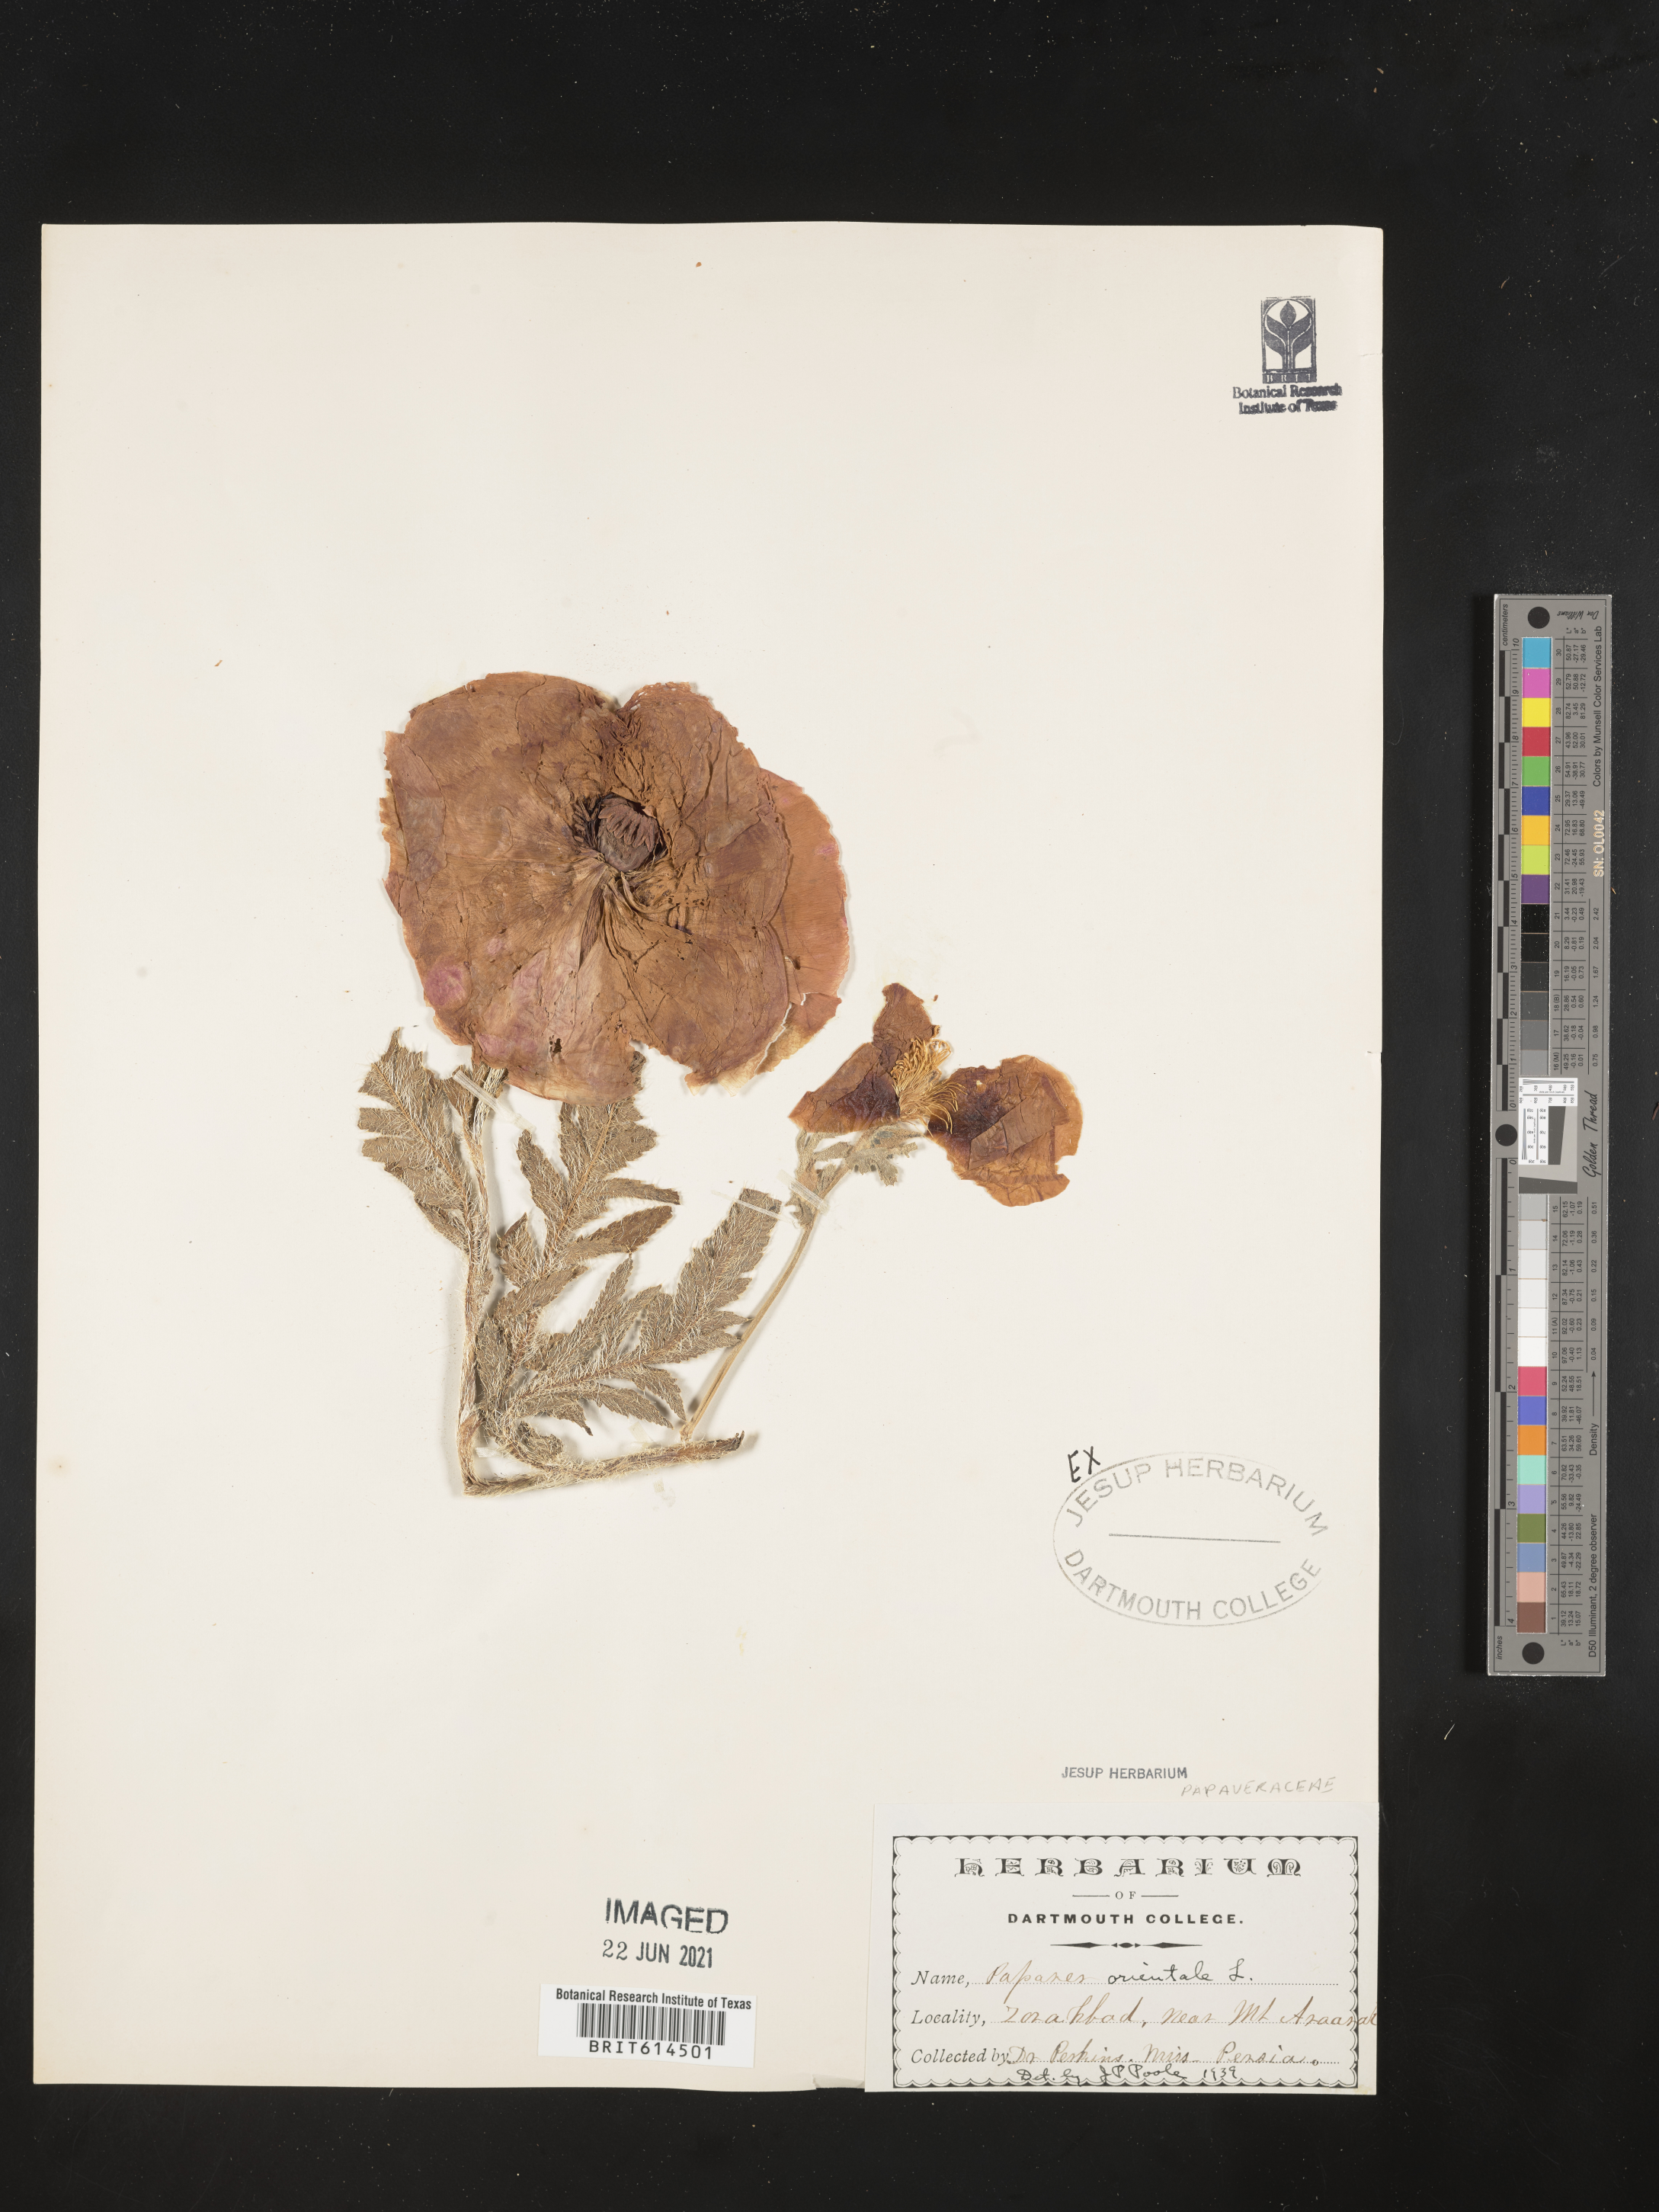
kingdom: Plantae
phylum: Tracheophyta
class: Magnoliopsida
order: Ranunculales
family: Papaveraceae
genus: Papaver
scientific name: Papaver orientale
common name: Oriental poppy
